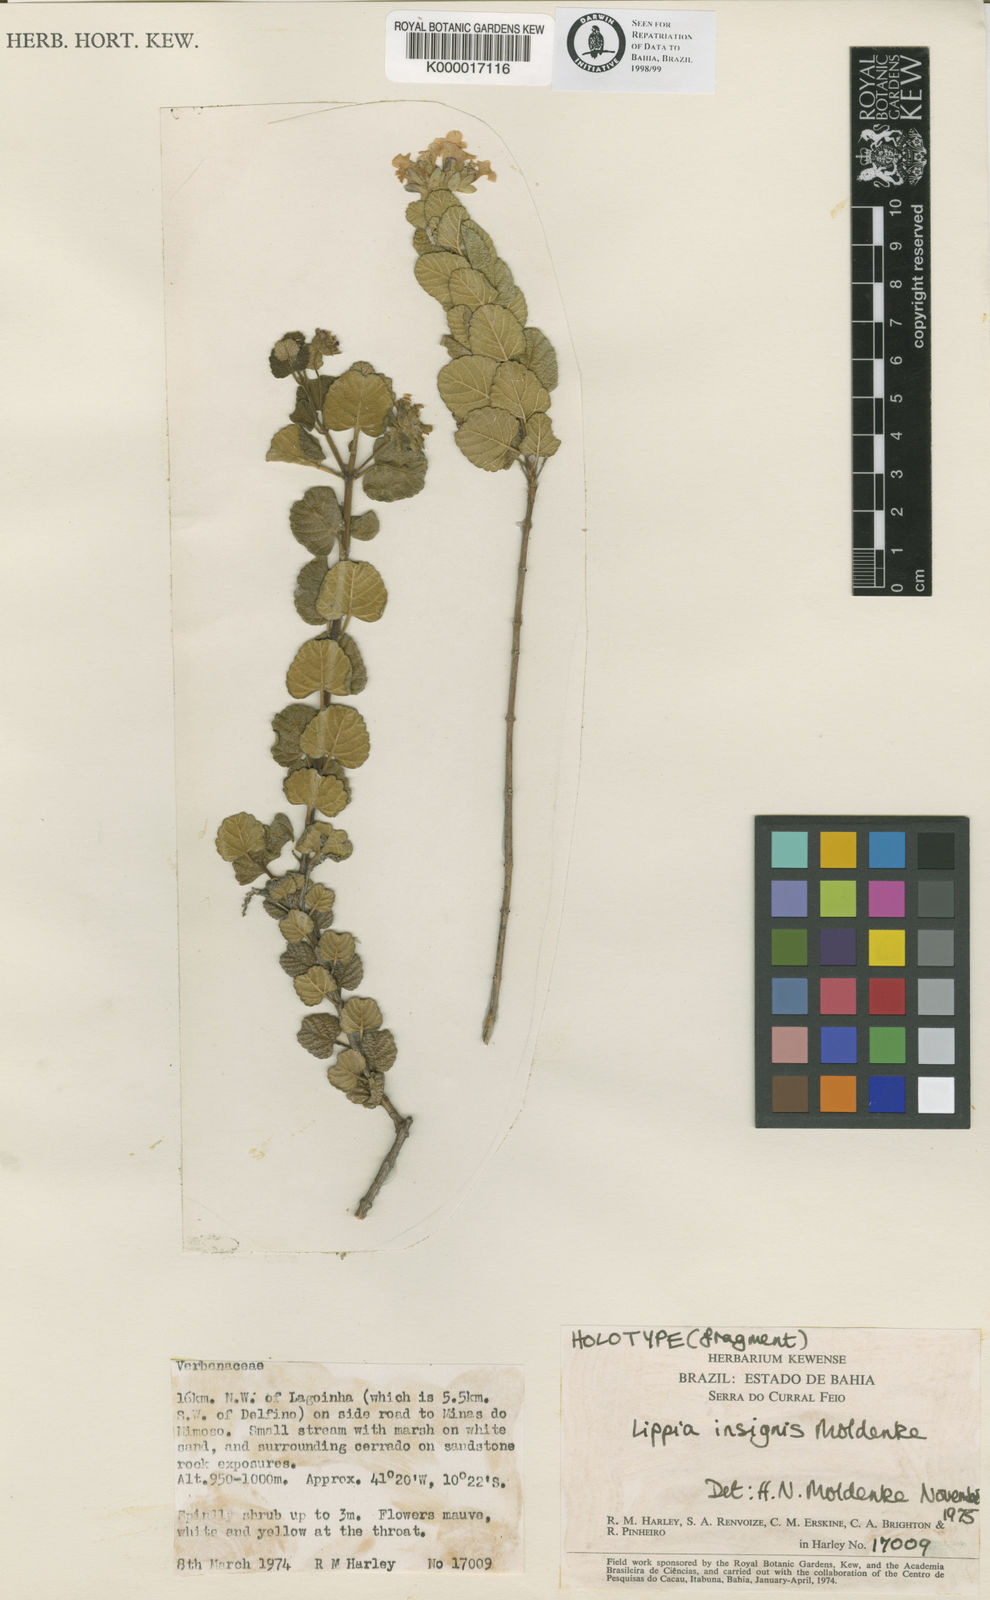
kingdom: Plantae
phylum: Tracheophyta
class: Magnoliopsida
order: Lamiales
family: Verbenaceae
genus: Lippia
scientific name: Lippia insignis
